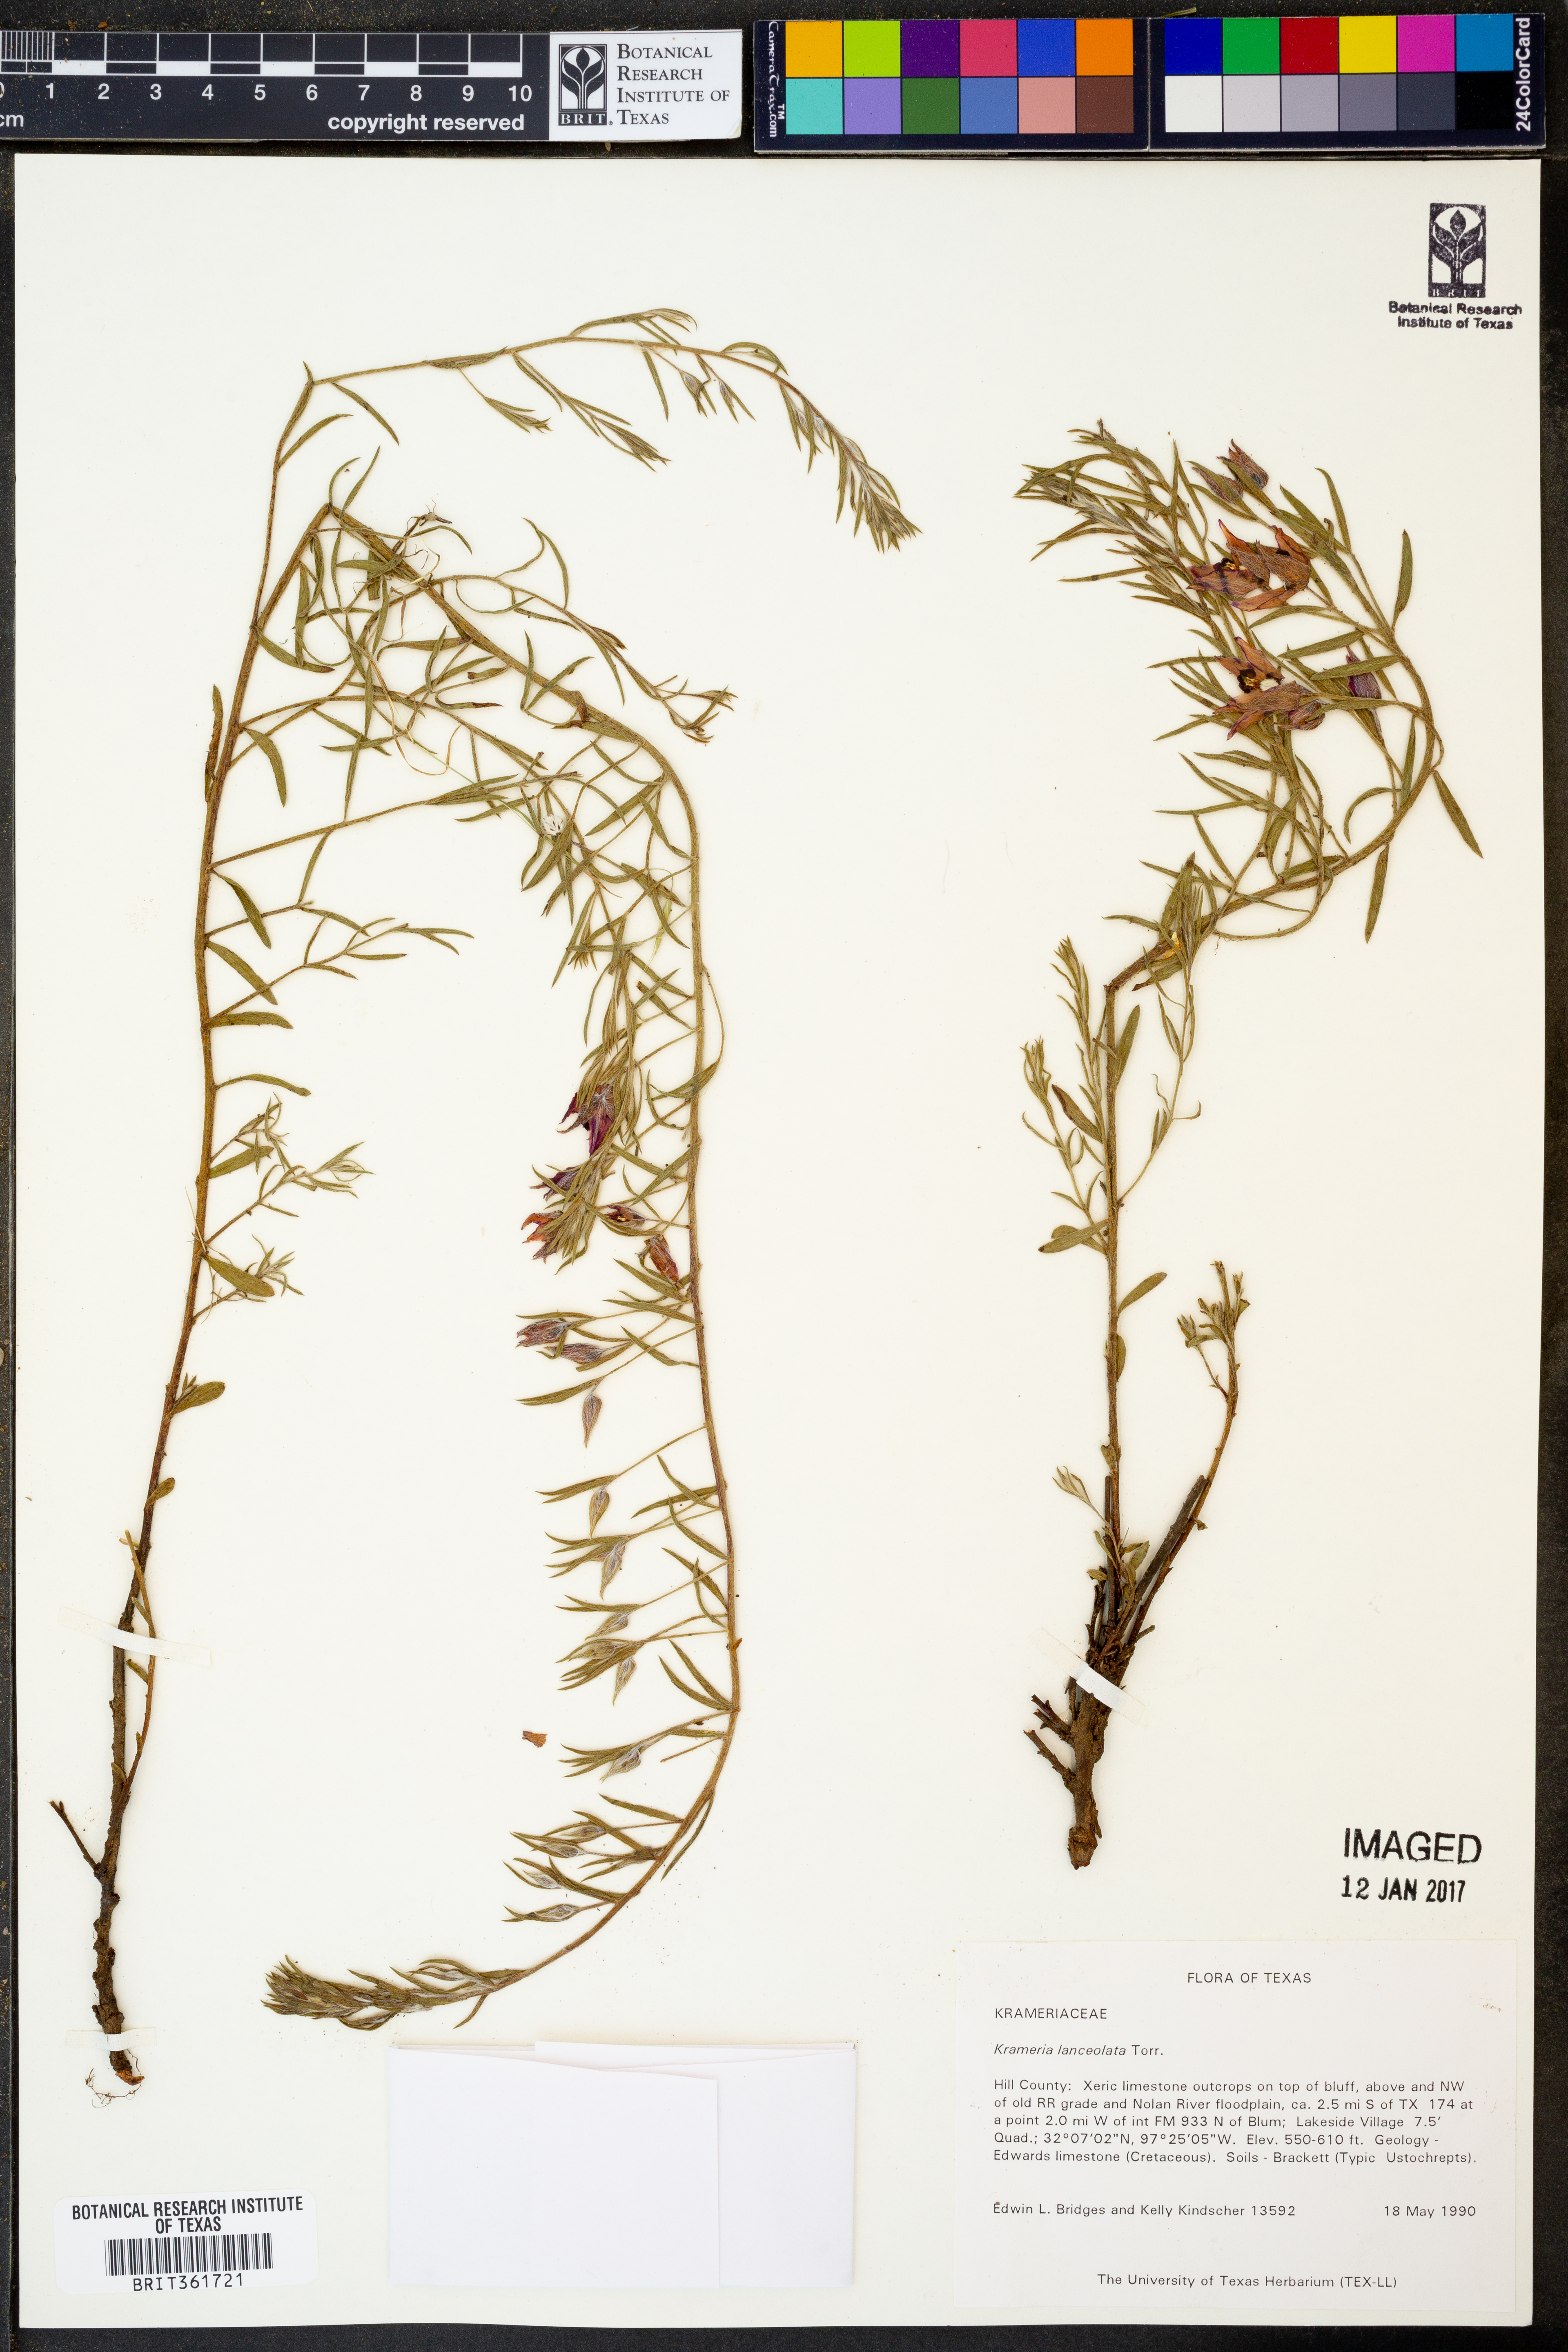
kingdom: Plantae
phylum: Tracheophyta
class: Magnoliopsida
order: Zygophyllales
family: Krameriaceae
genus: Krameria
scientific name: Krameria lanceolata
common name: Ratany
